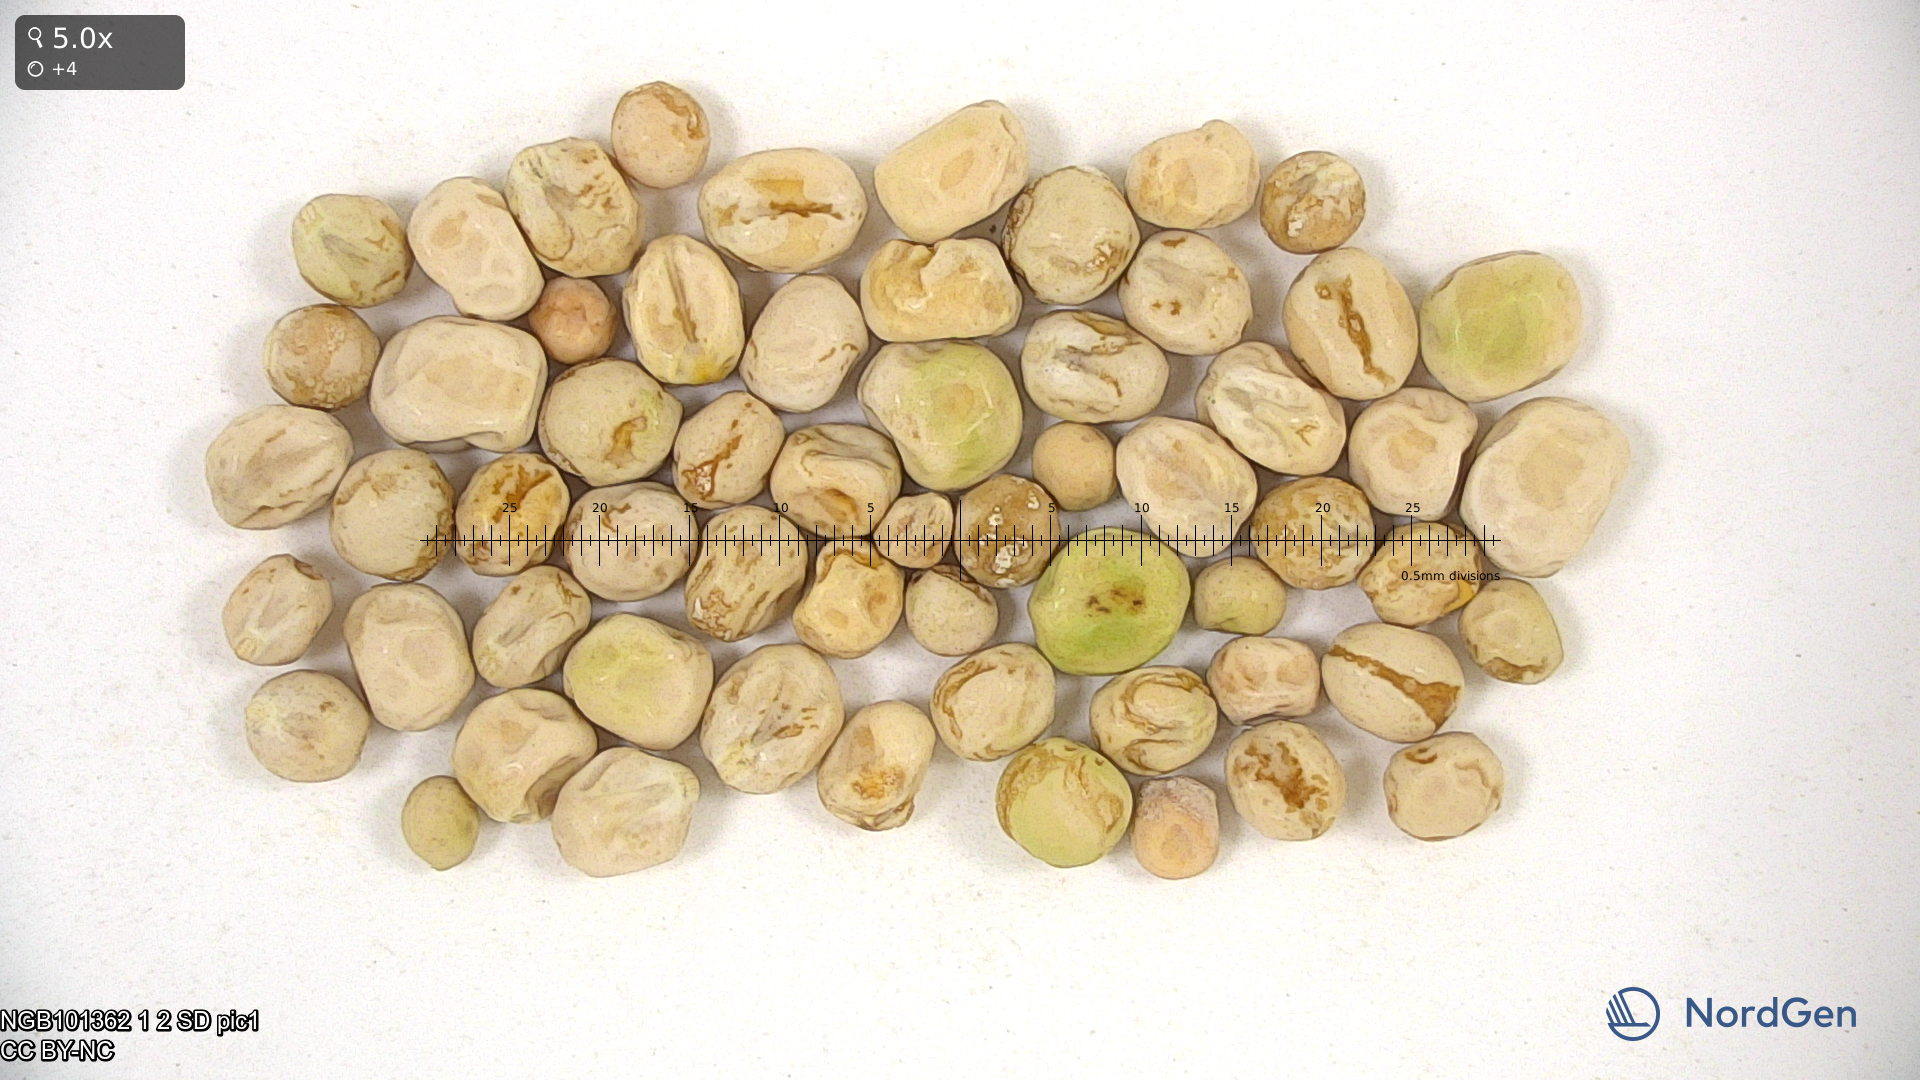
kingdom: Plantae
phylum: Tracheophyta
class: Magnoliopsida
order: Fabales
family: Fabaceae
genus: Lathyrus
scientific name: Lathyrus oleraceus
